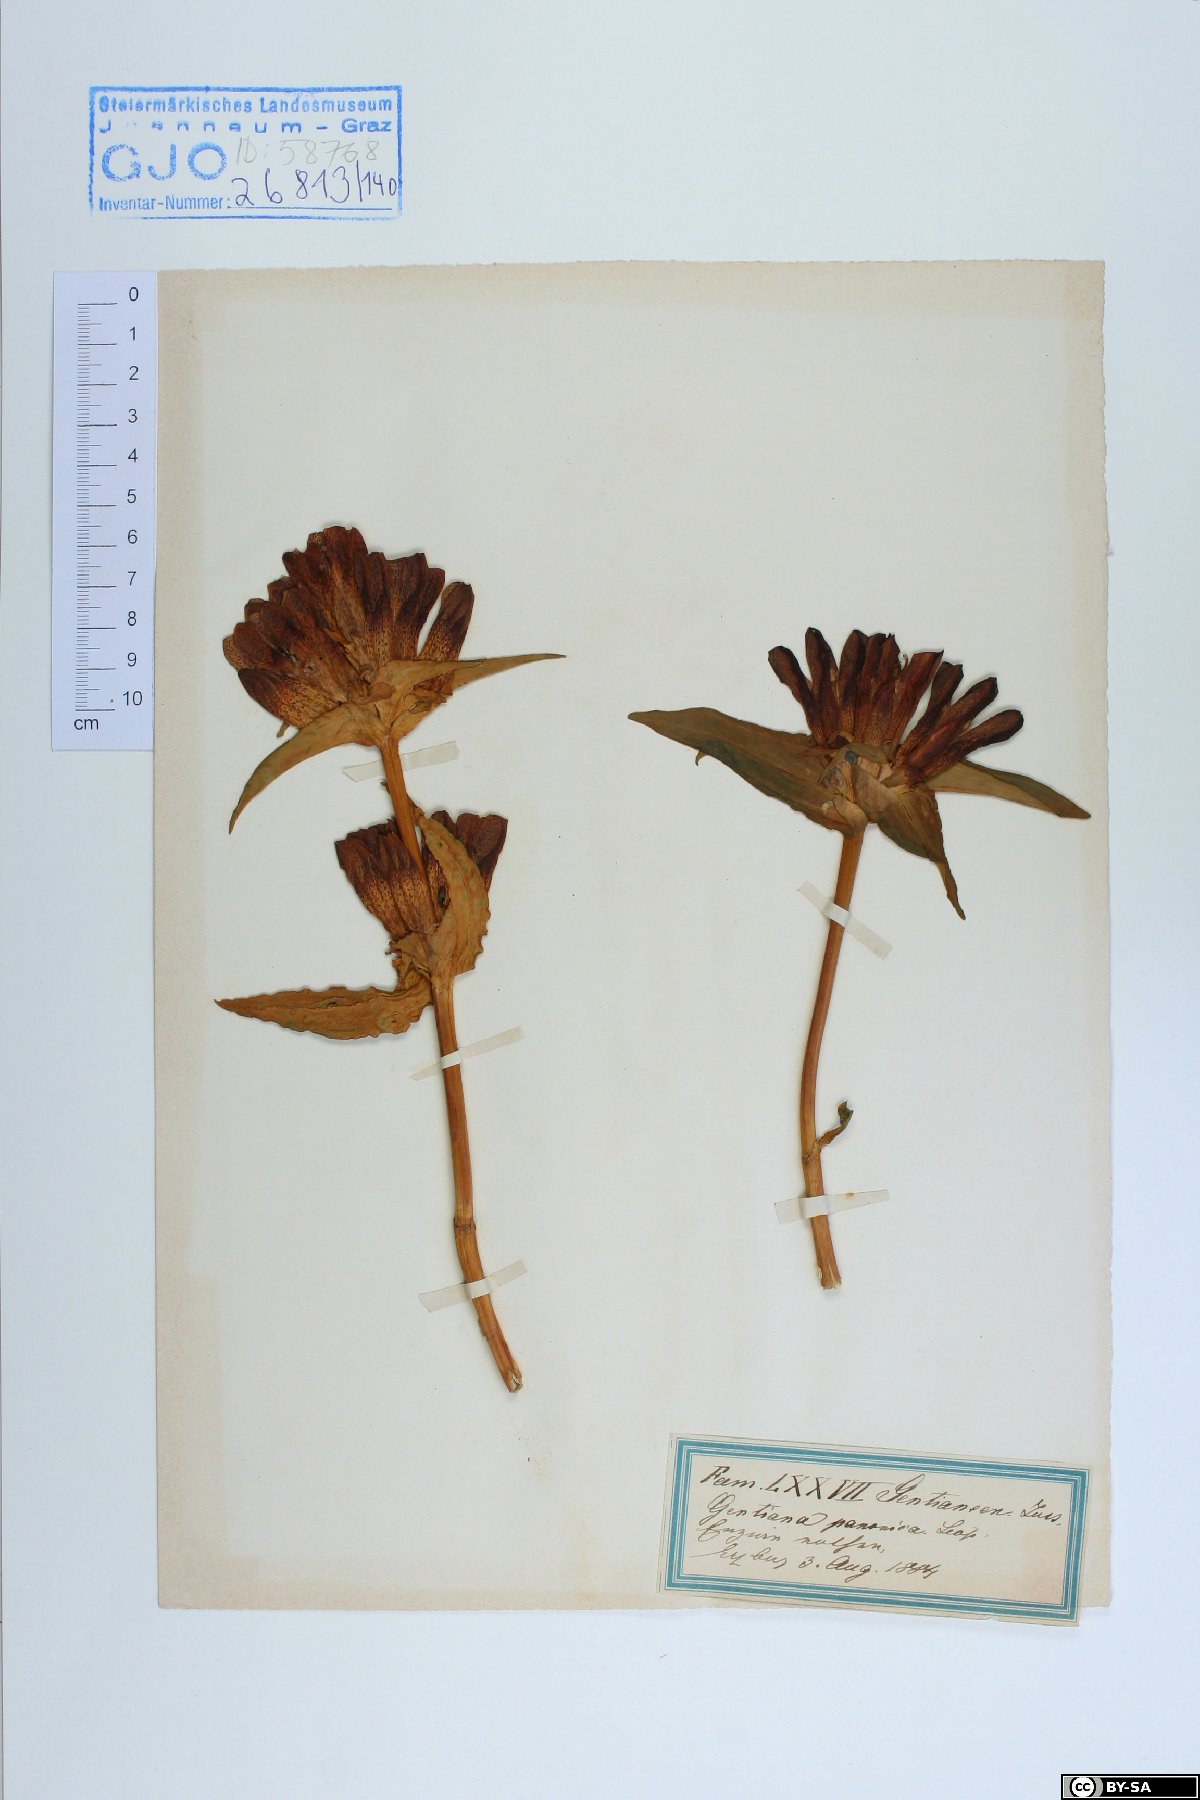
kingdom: Plantae
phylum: Tracheophyta
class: Magnoliopsida
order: Gentianales
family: Gentianaceae
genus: Gentiana
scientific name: Gentiana pannonica
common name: Hungarian gentian
